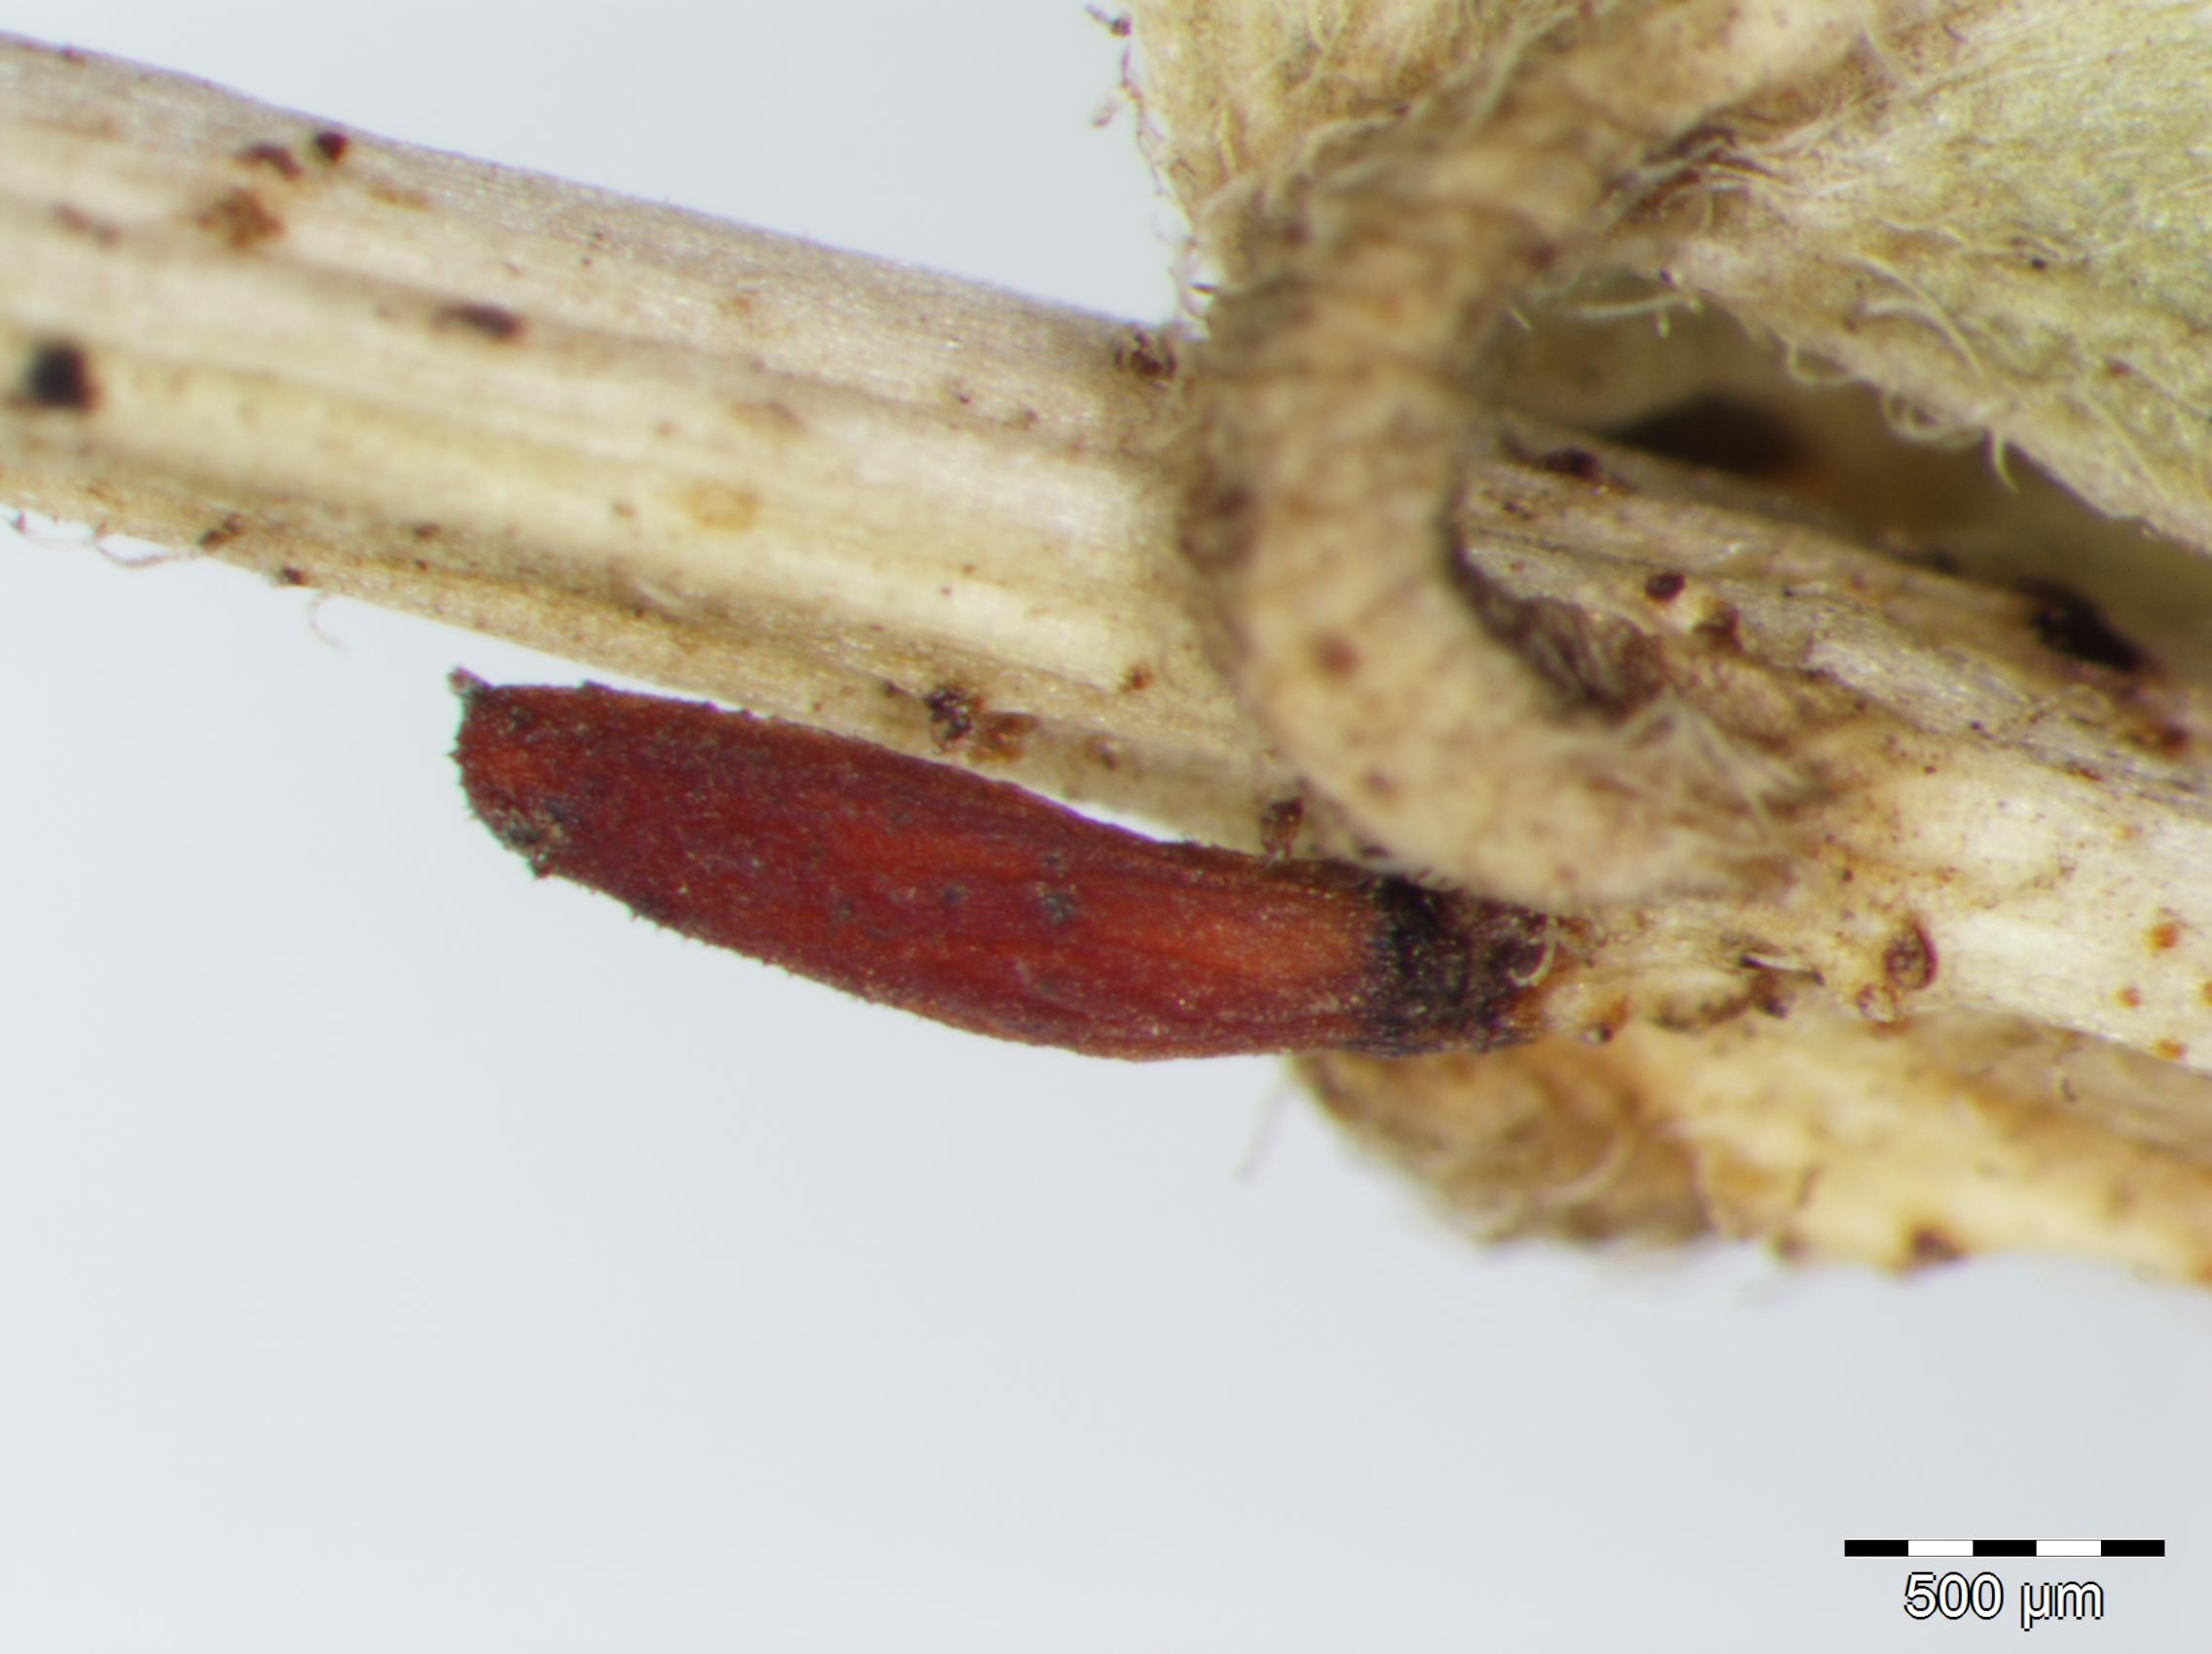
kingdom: Plantae
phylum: Tracheophyta
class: Magnoliopsida
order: Fabales
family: Fabaceae
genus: Senna
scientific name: Senna obtusifolia
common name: Java-bean
